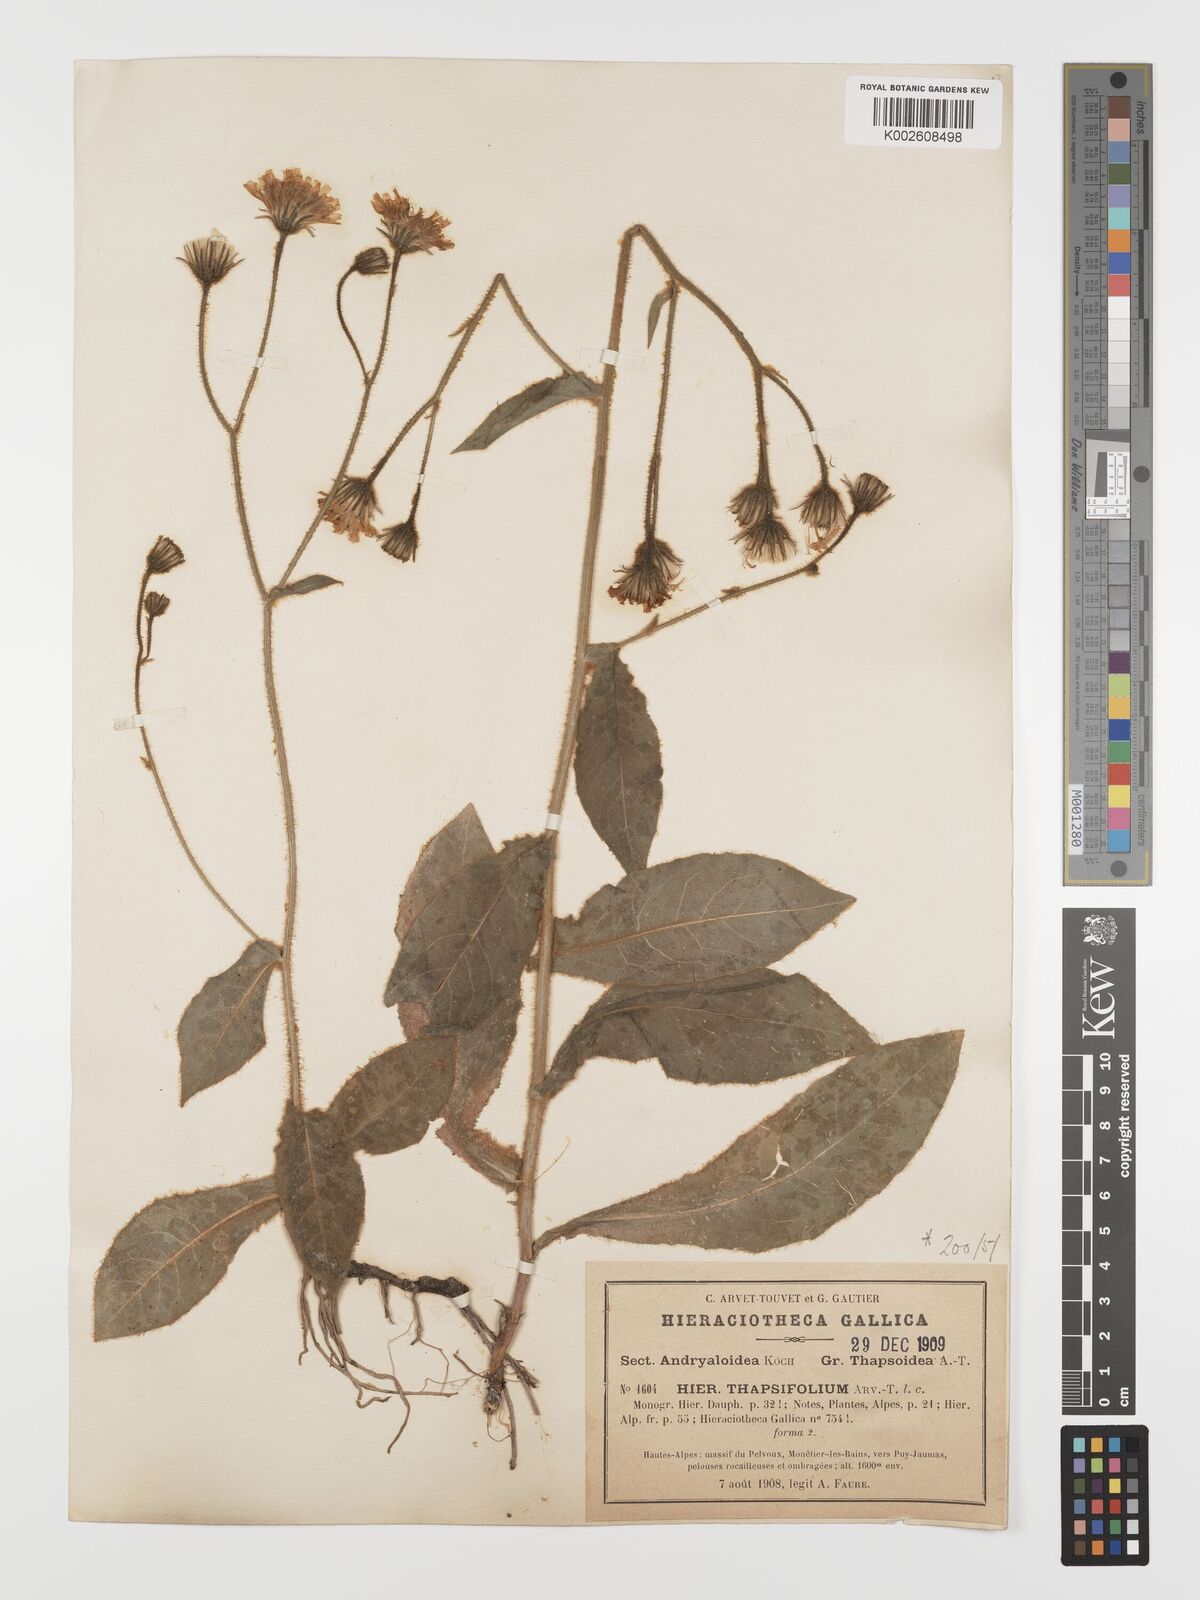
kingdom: Plantae
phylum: Tracheophyta
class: Magnoliopsida
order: Asterales
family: Asteraceae
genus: Hieracium
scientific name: Hieracium verbascifolium
